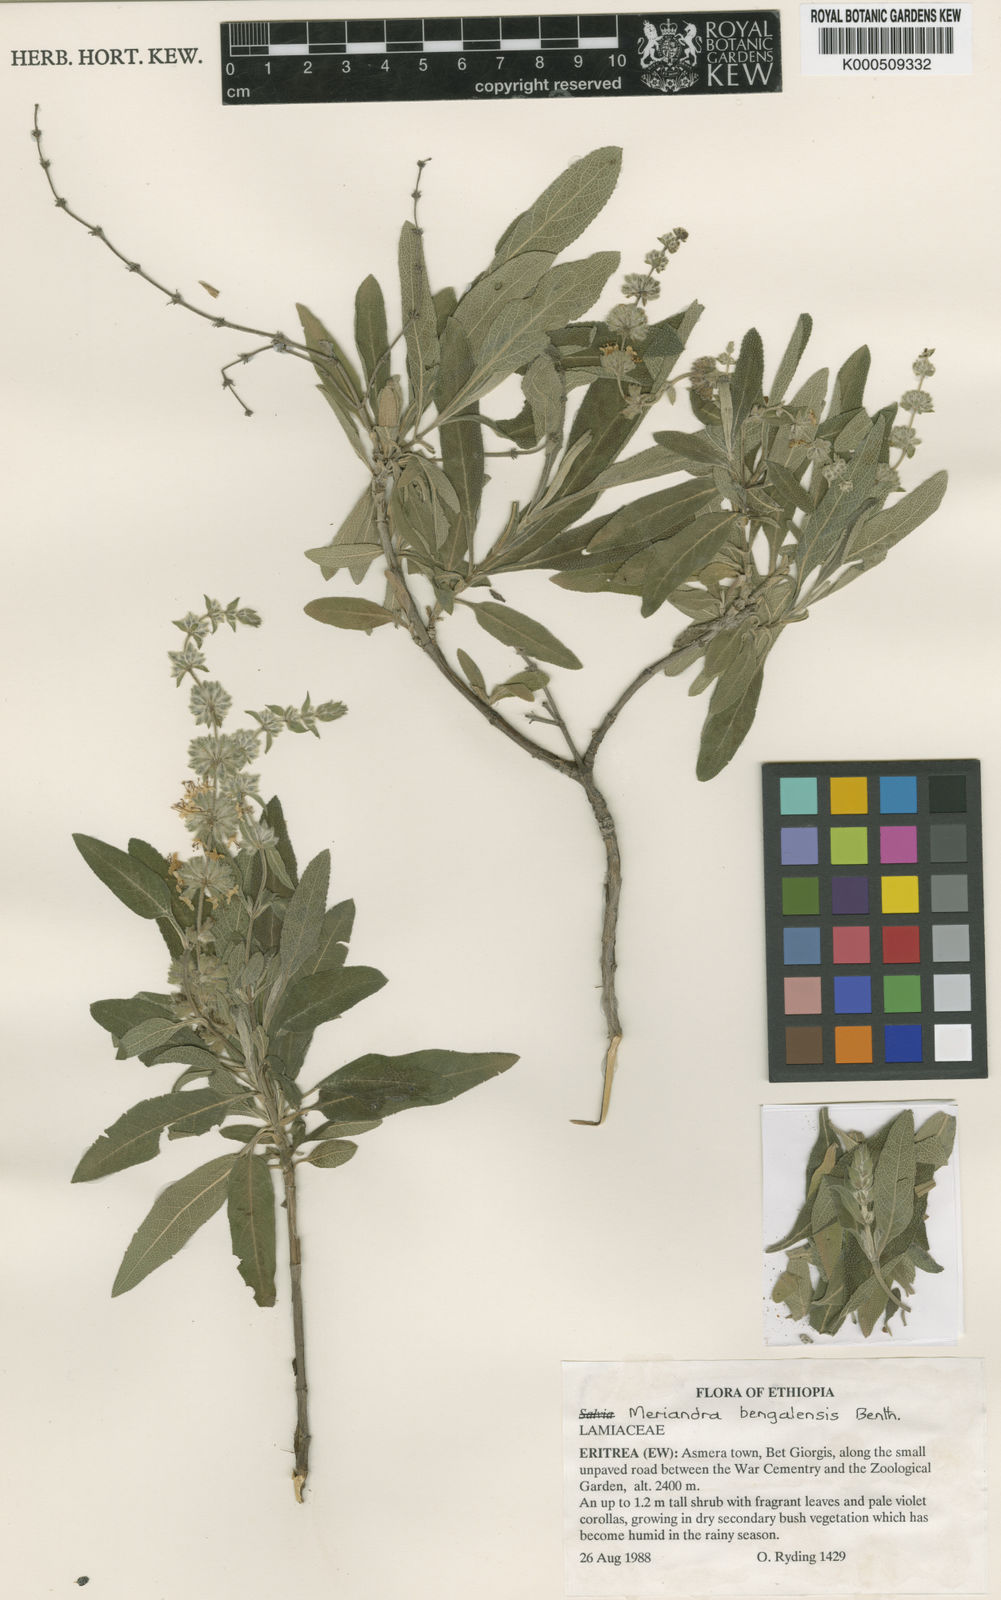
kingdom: Plantae
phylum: Tracheophyta
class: Magnoliopsida
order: Lamiales
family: Lamiaceae
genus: Salvia
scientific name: Salvia dianthera
